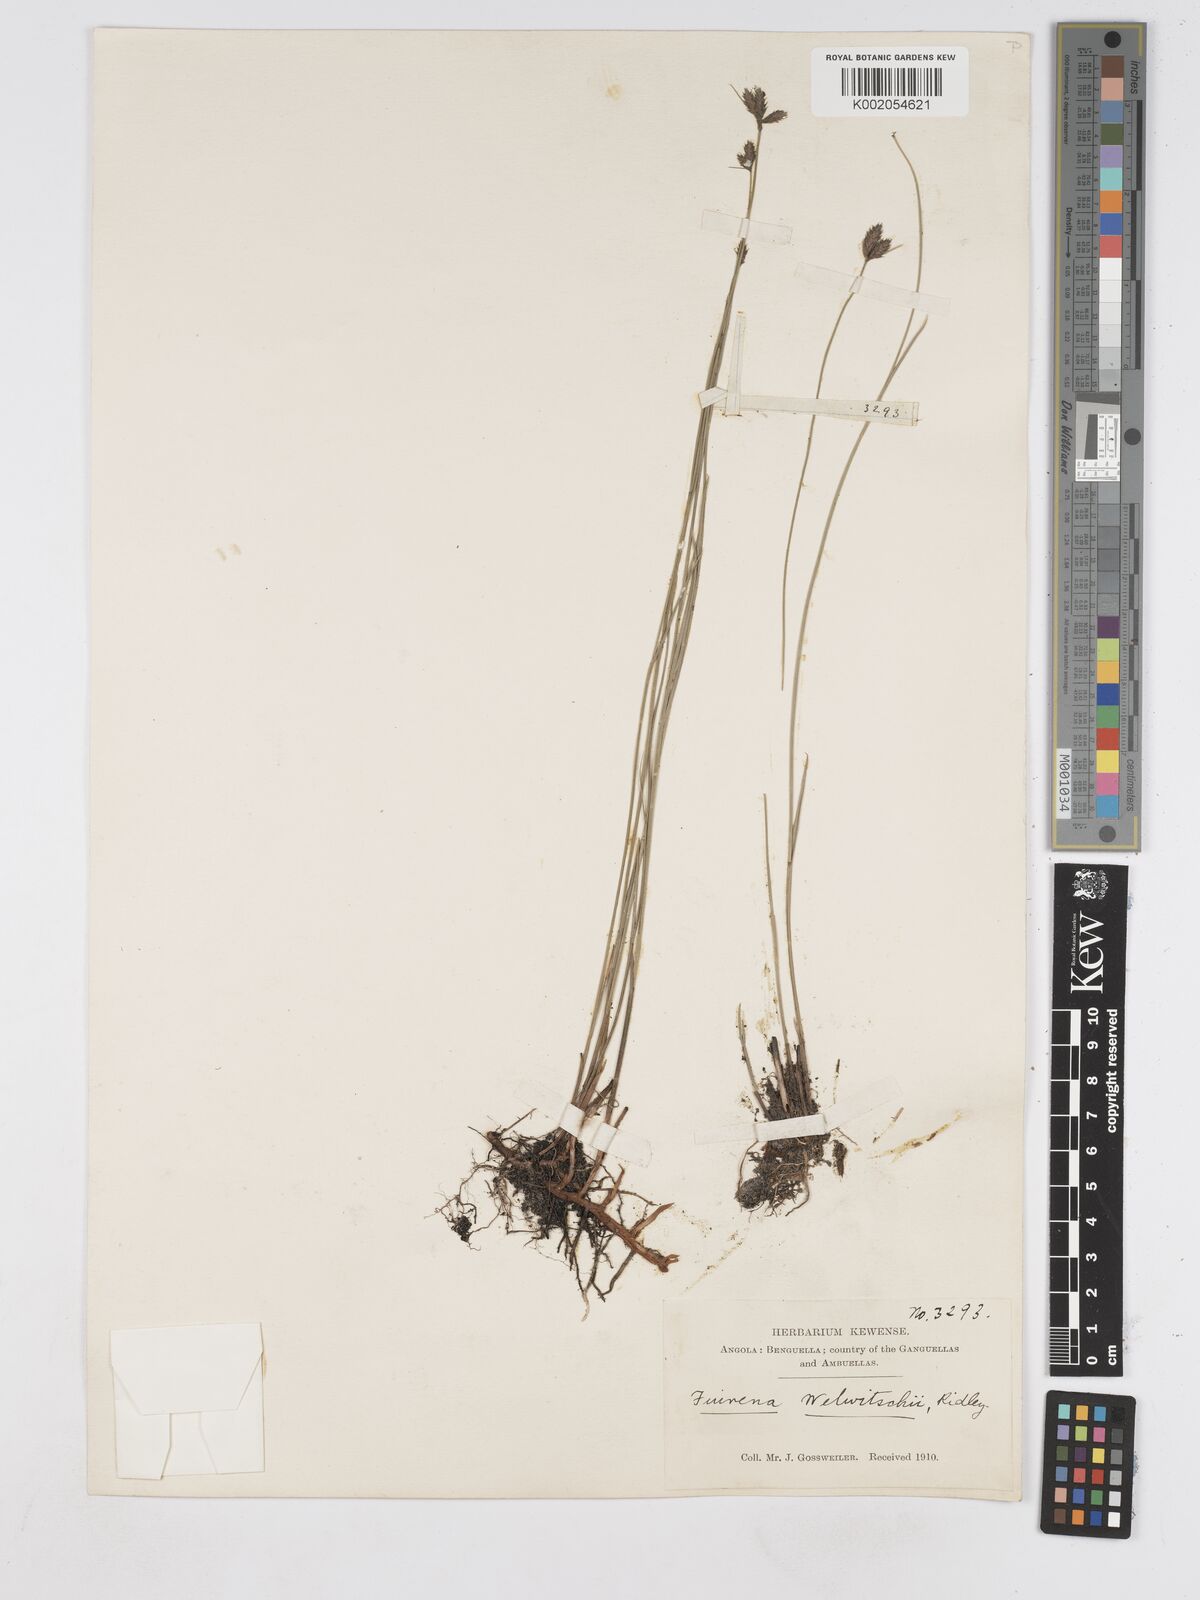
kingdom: Plantae
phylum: Tracheophyta
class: Liliopsida
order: Poales
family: Cyperaceae
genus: Fuirena
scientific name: Fuirena welwitschii
